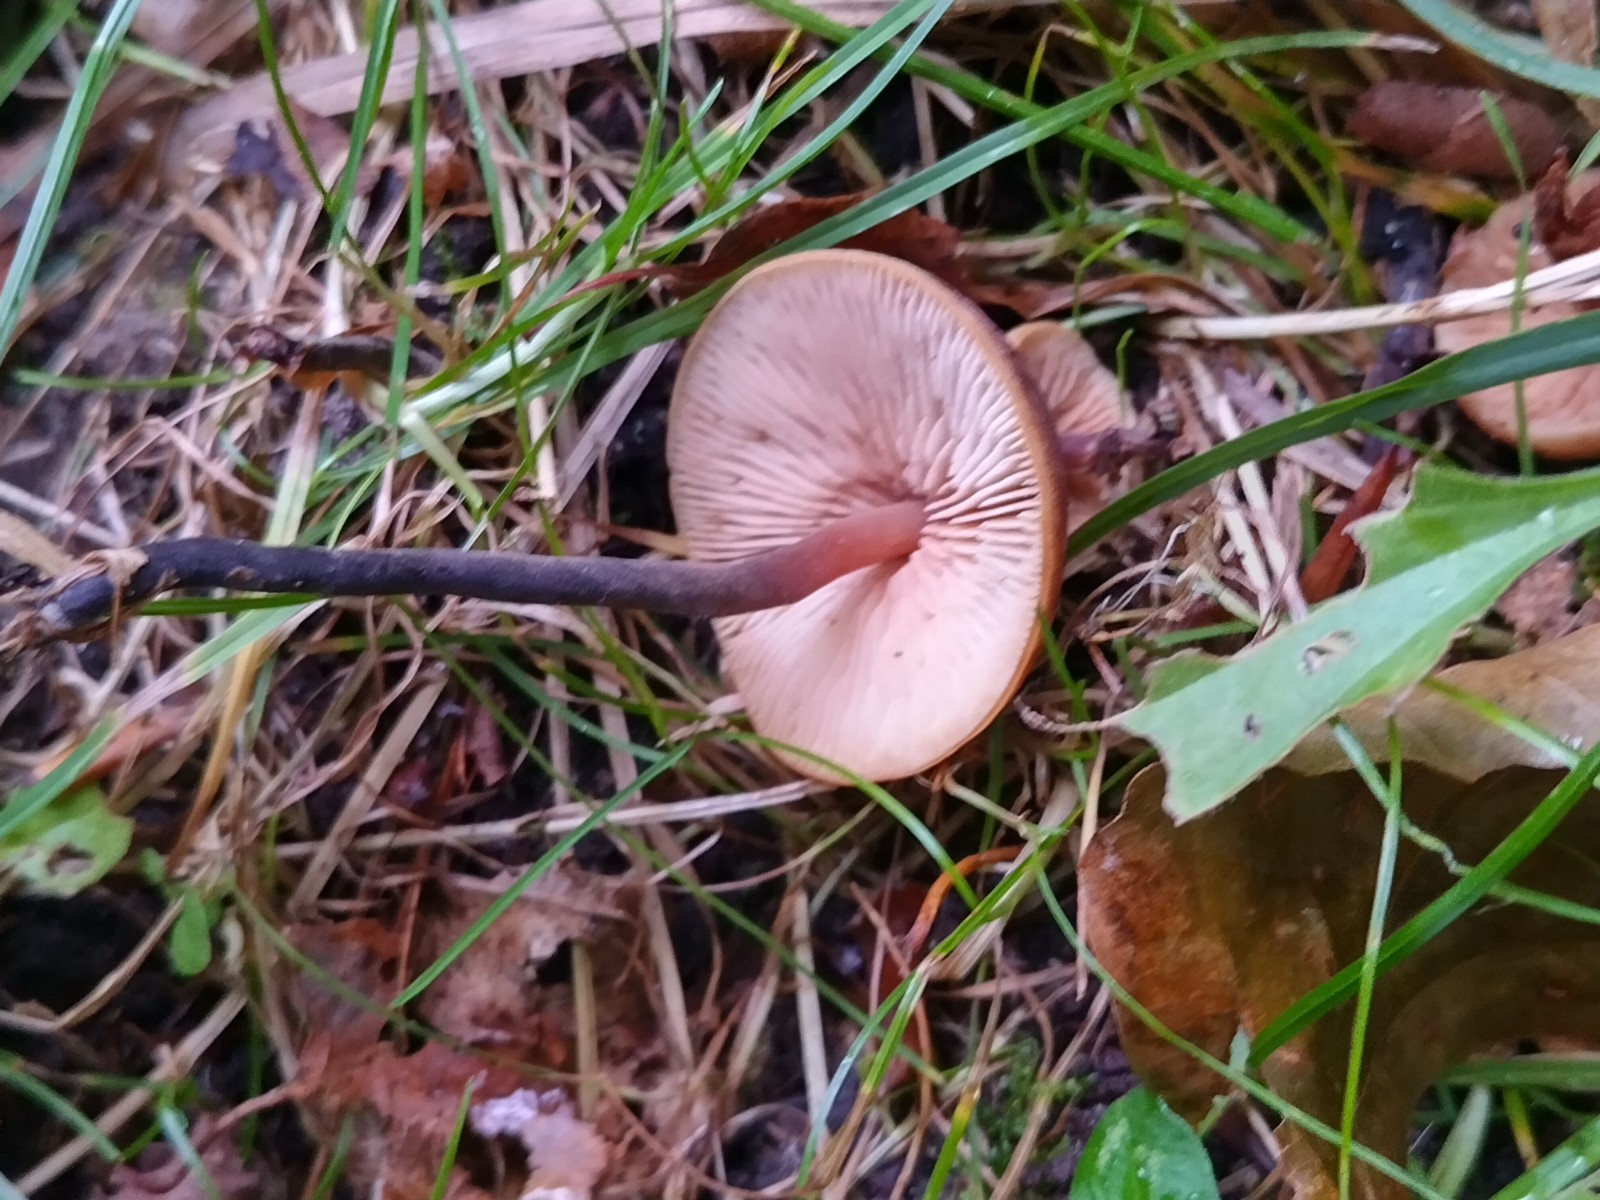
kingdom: Fungi
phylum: Basidiomycota
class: Agaricomycetes
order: Agaricales
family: Macrocystidiaceae
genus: Macrocystidia
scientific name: Macrocystidia cucumis
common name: agurkehat
